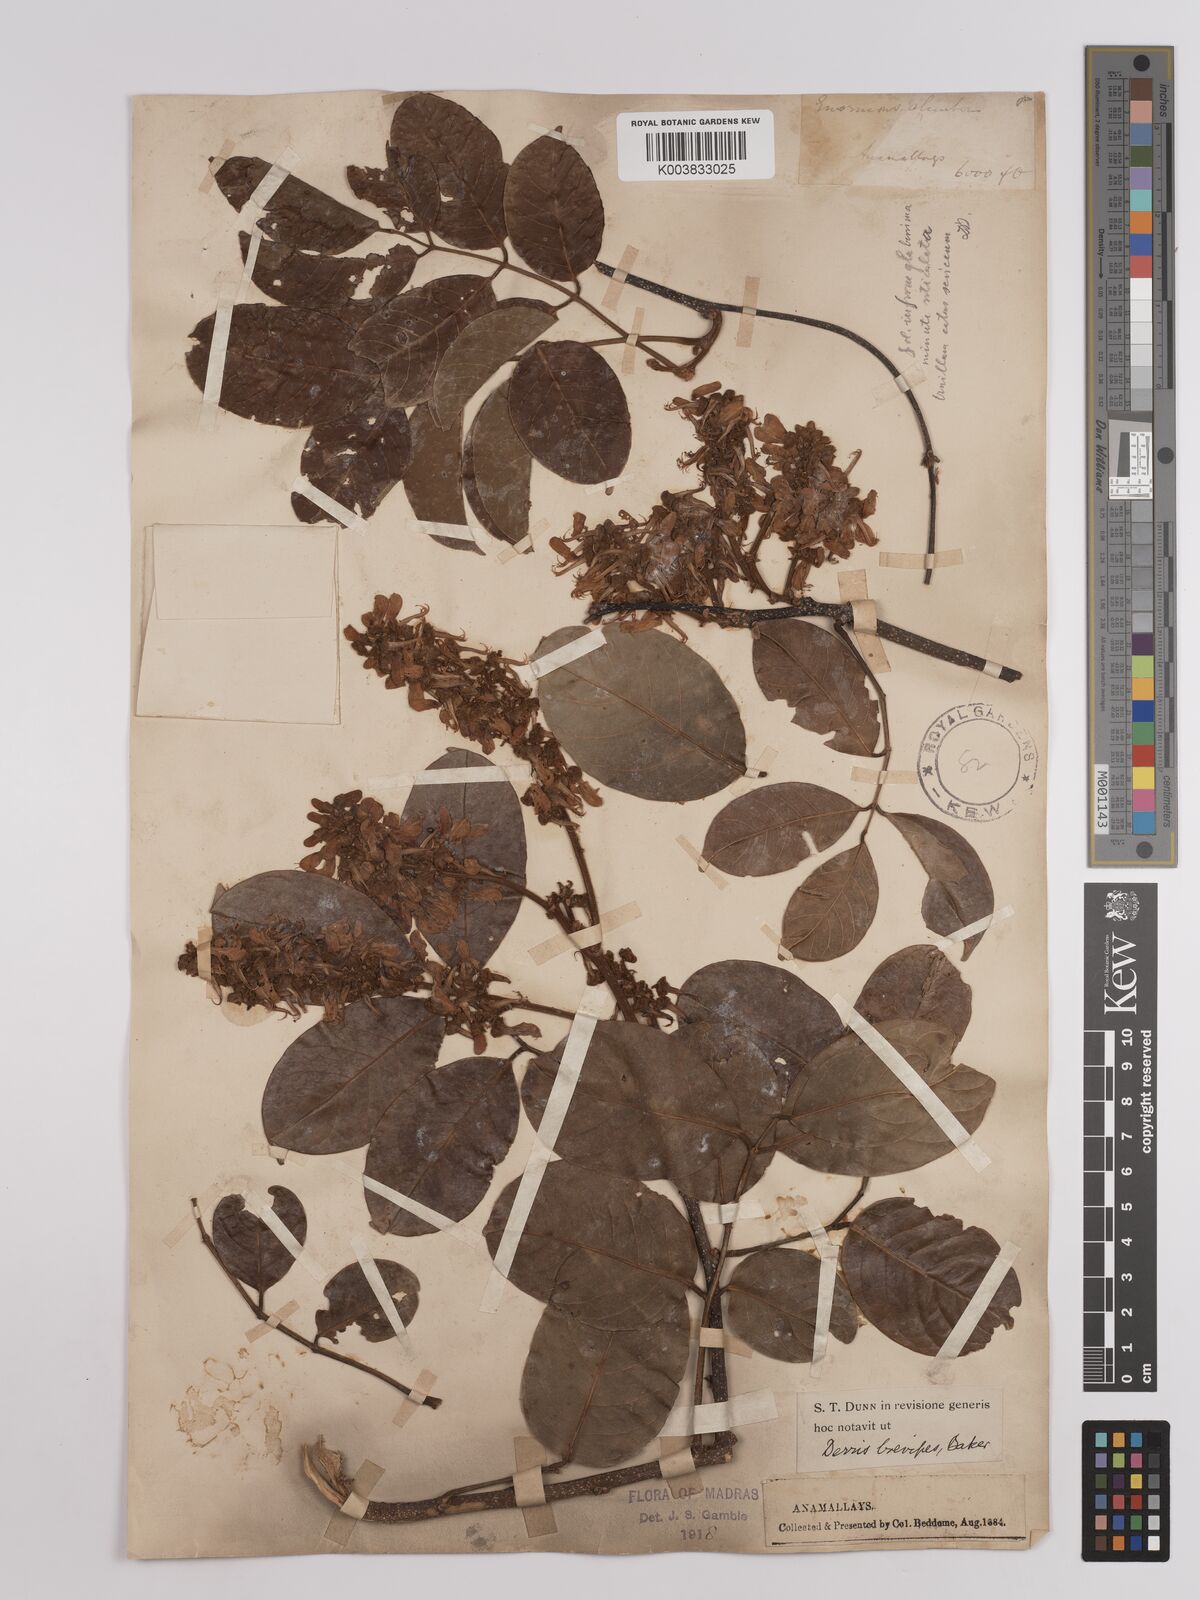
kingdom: Plantae
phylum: Tracheophyta
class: Magnoliopsida
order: Fabales
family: Fabaceae
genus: Derris
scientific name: Derris brevipes
